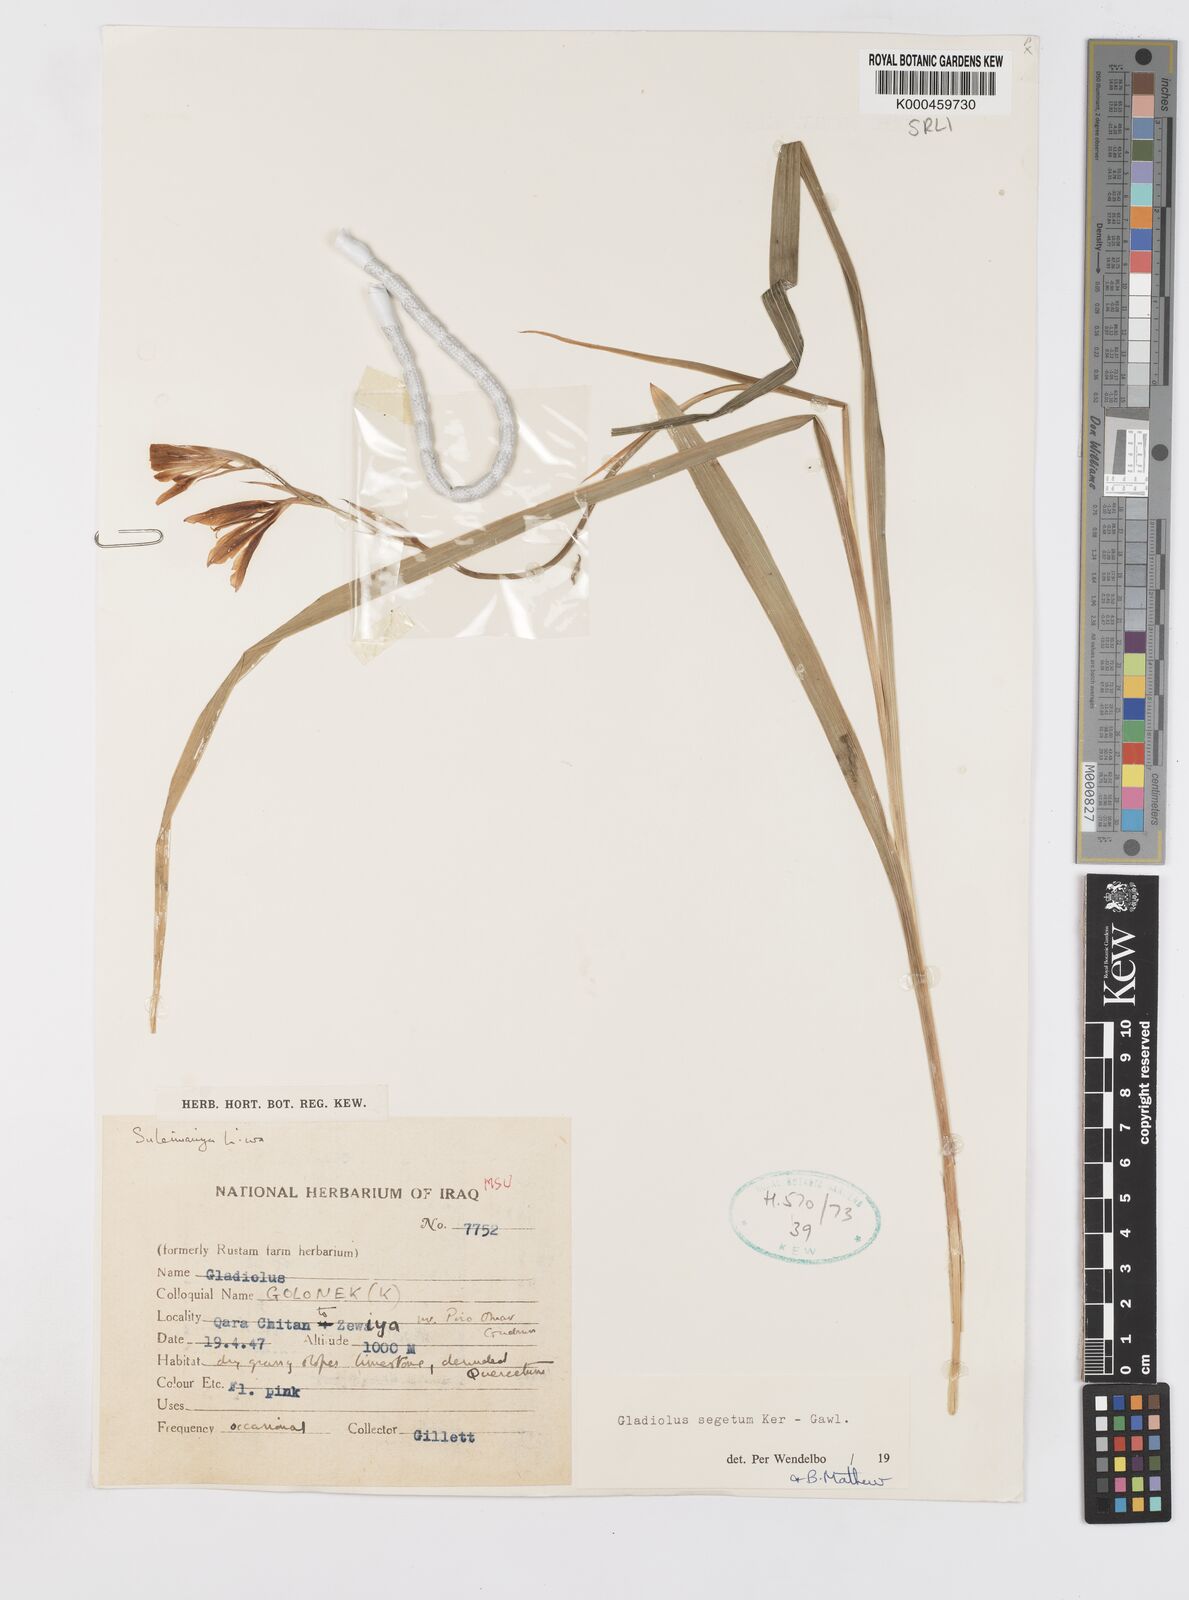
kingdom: Plantae
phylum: Tracheophyta
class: Liliopsida
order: Asparagales
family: Iridaceae
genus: Gladiolus
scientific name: Gladiolus italicus
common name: Field gladiolus
